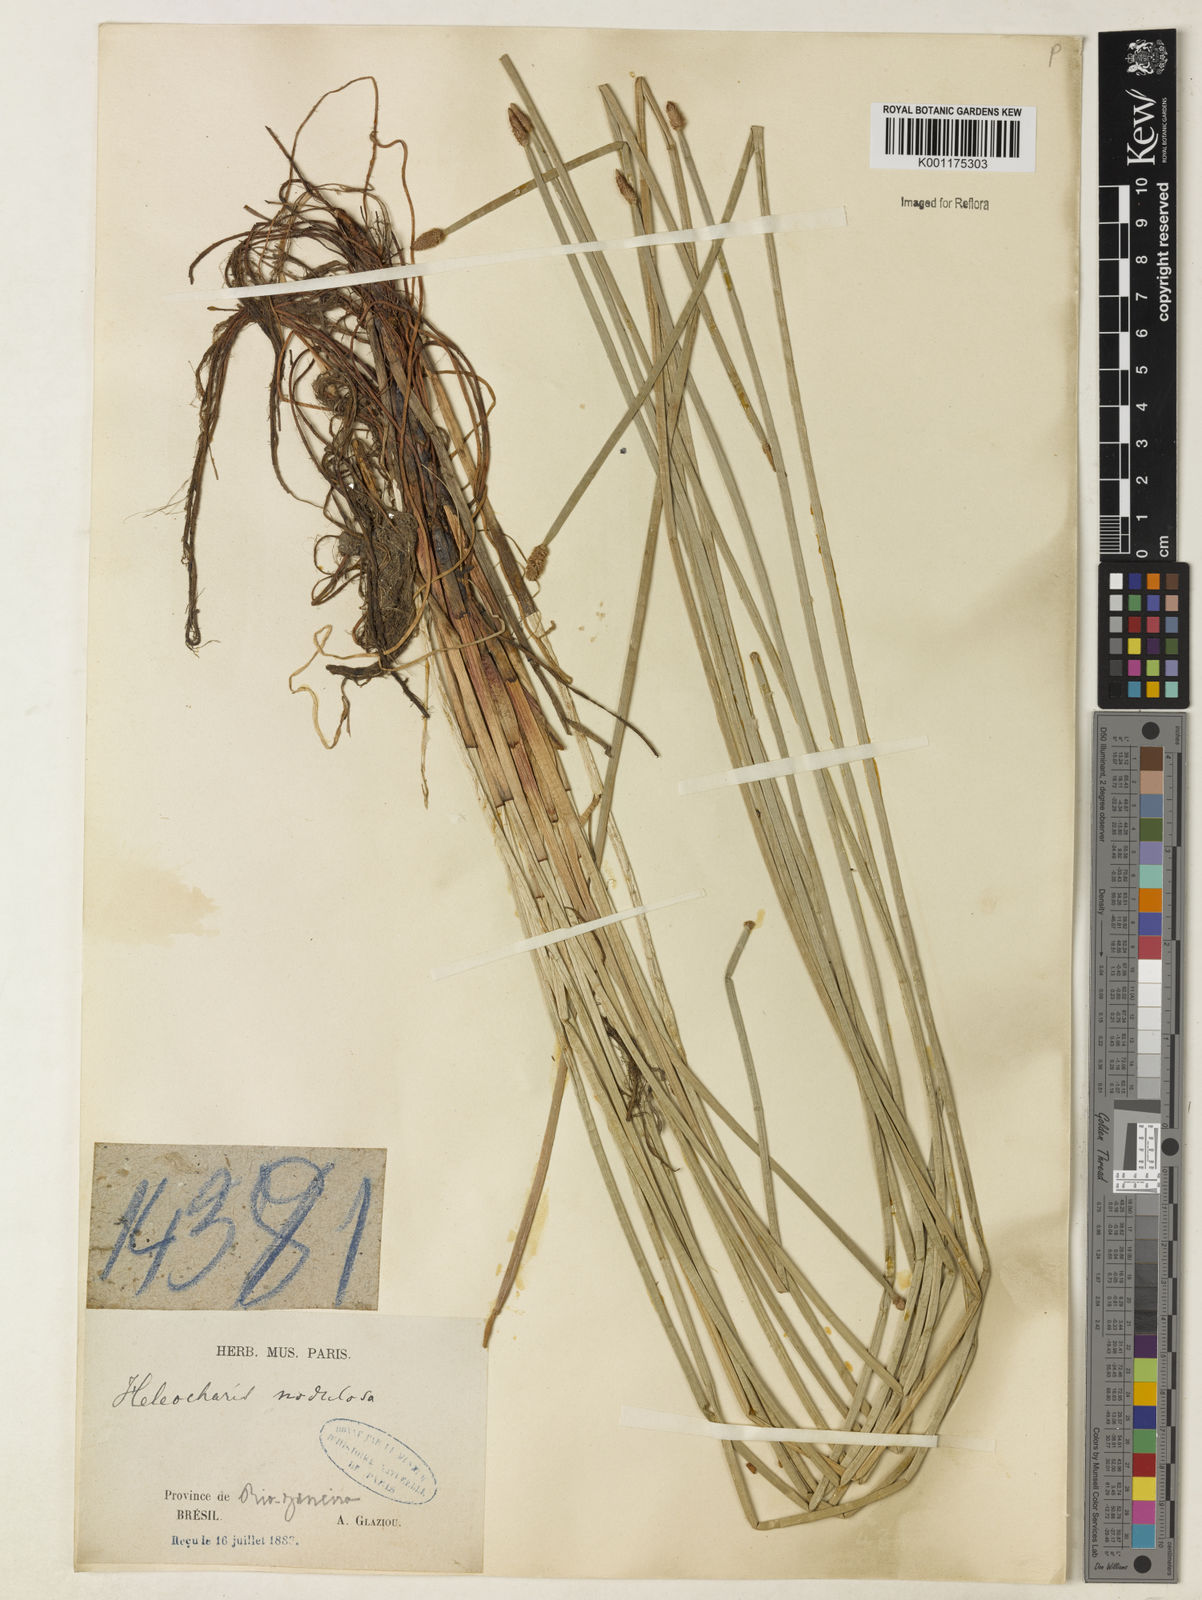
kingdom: Plantae
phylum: Tracheophyta
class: Liliopsida
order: Poales
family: Cyperaceae
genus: Eleocharis
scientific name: Eleocharis montana
